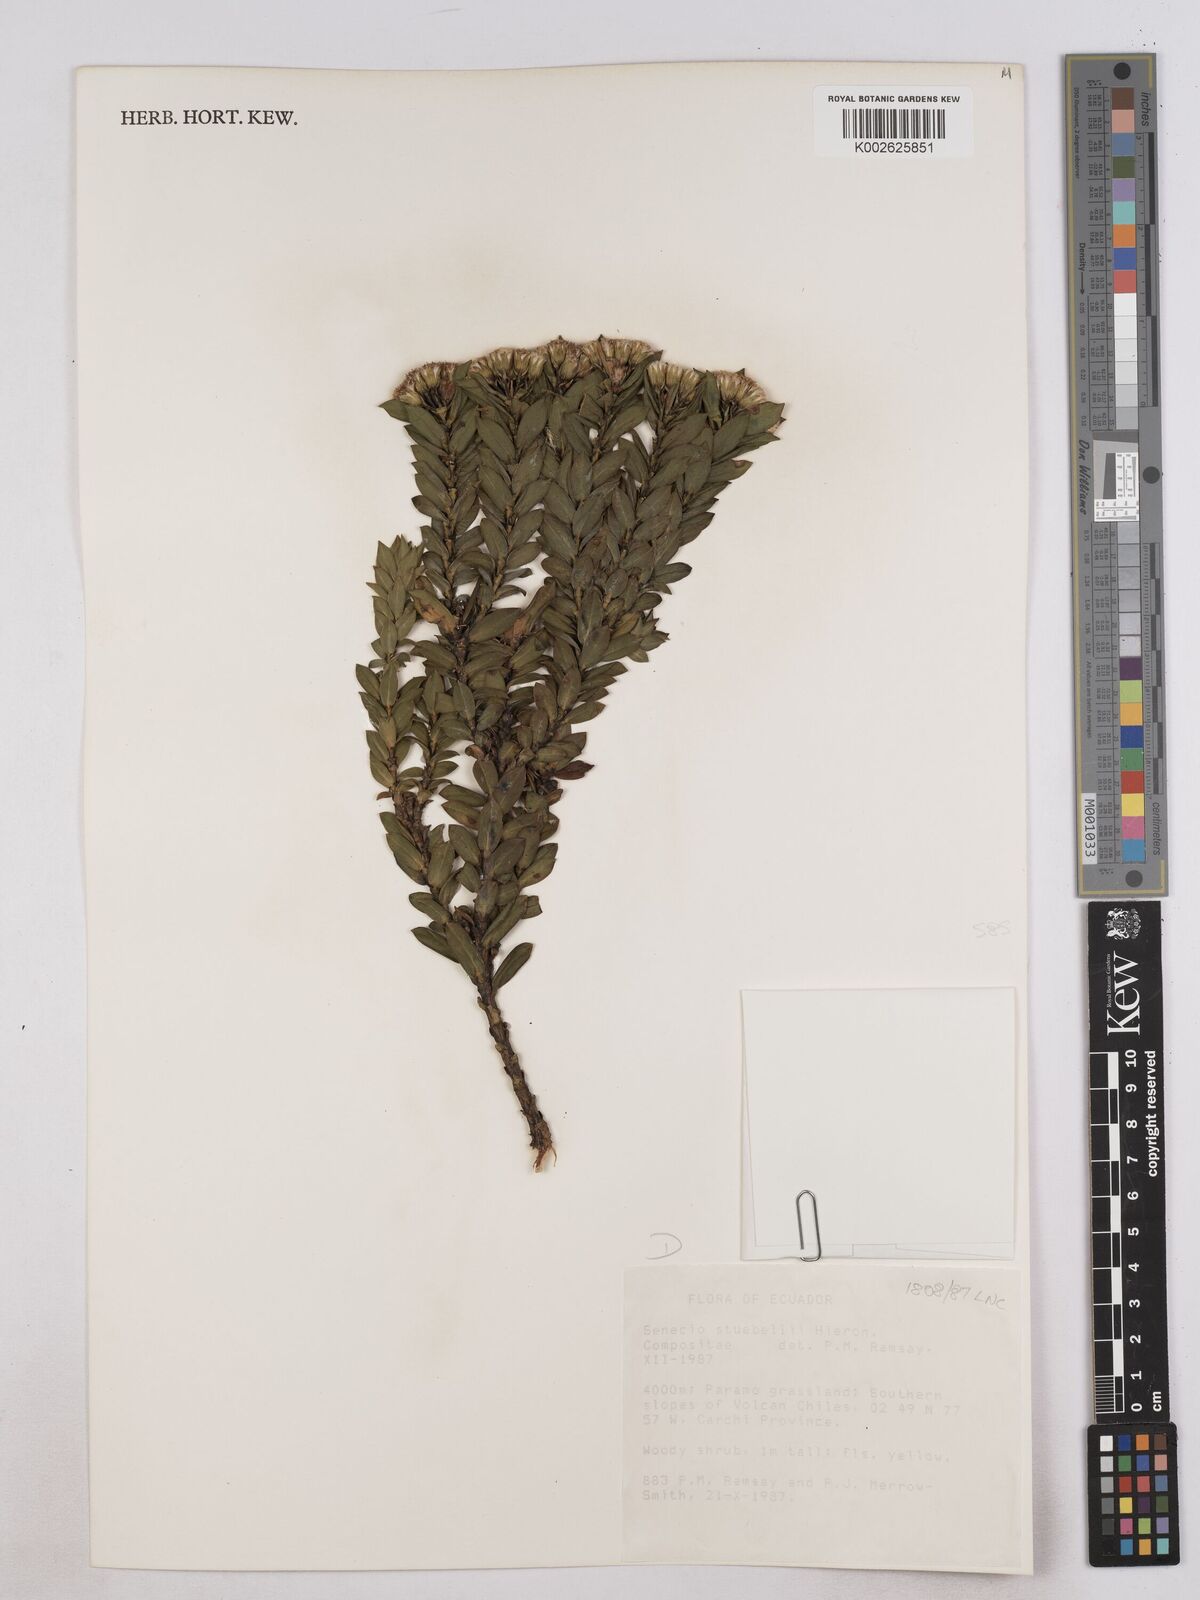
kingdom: Plantae
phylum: Tracheophyta
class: Magnoliopsida
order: Asterales
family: Asteraceae
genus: Monticalia
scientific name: Monticalia stuebelii
